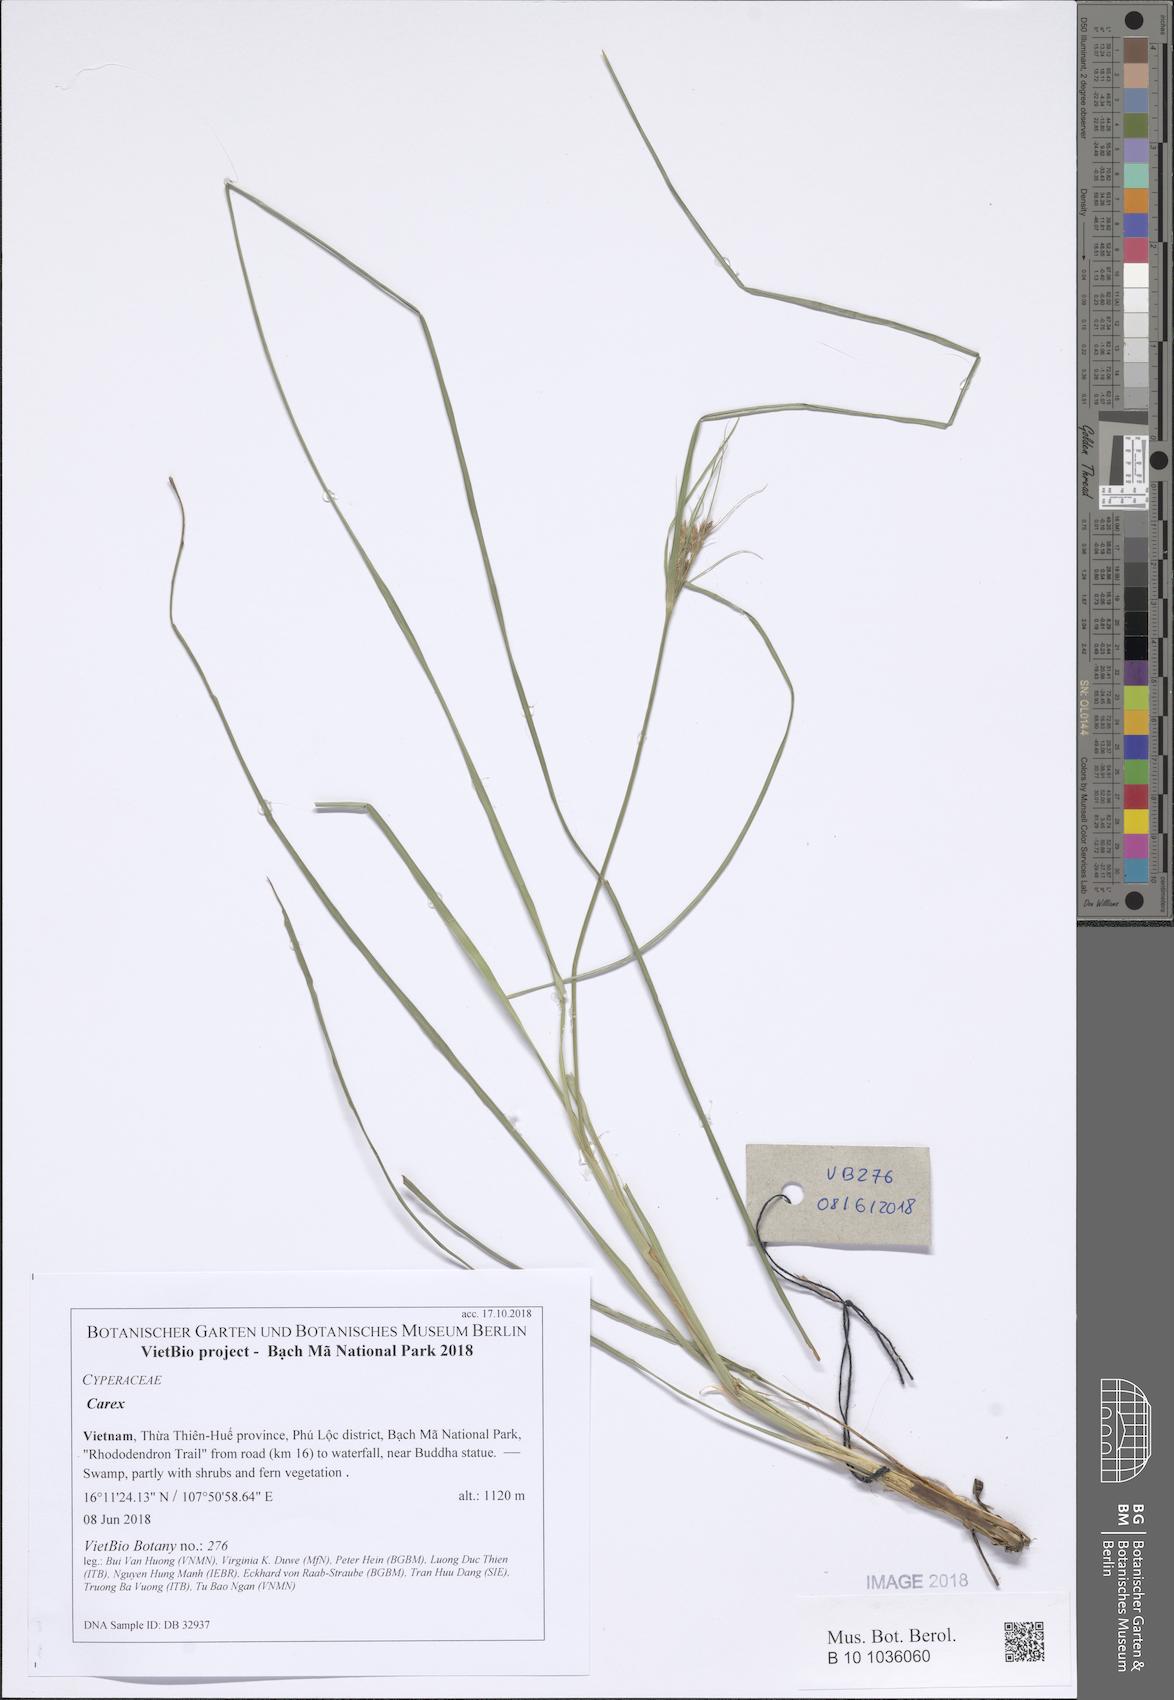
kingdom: Plantae
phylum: Tracheophyta
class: Liliopsida
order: Poales
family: Cyperaceae
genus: Carex
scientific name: Carex
